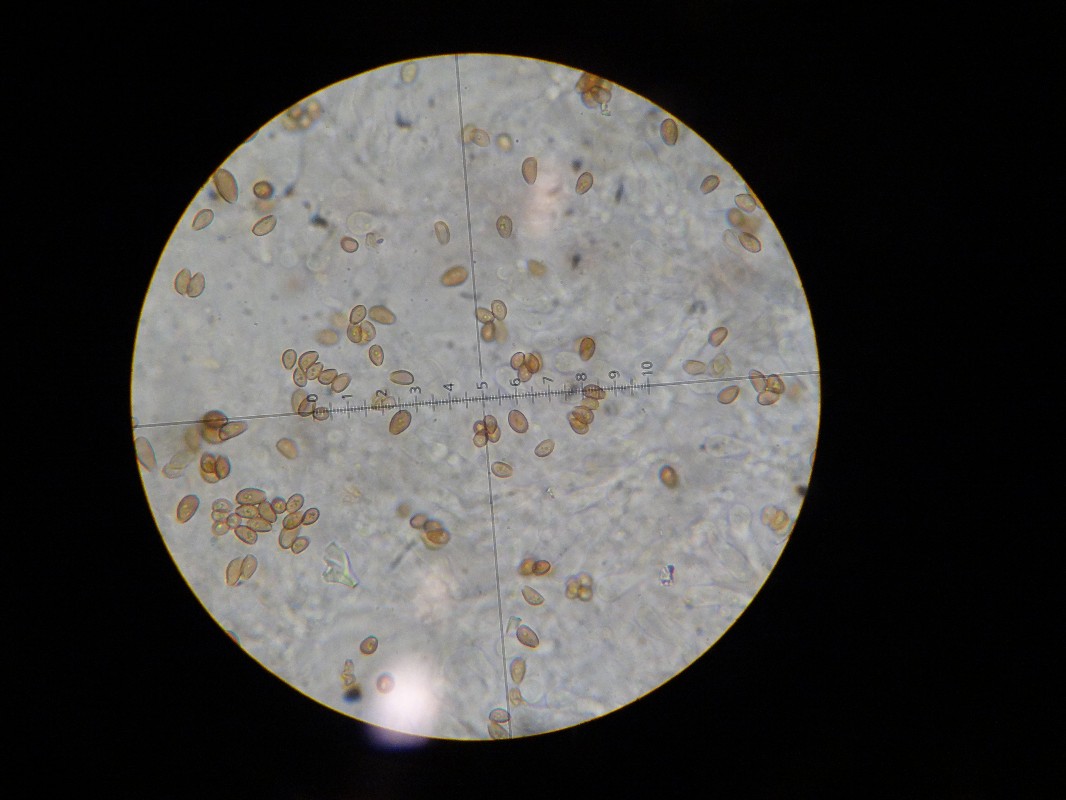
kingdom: Fungi
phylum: Basidiomycota
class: Agaricomycetes
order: Agaricales
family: Strophariaceae
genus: Kuehneromyces
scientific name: Kuehneromyces mutabilis
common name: foranderlig skælhat
